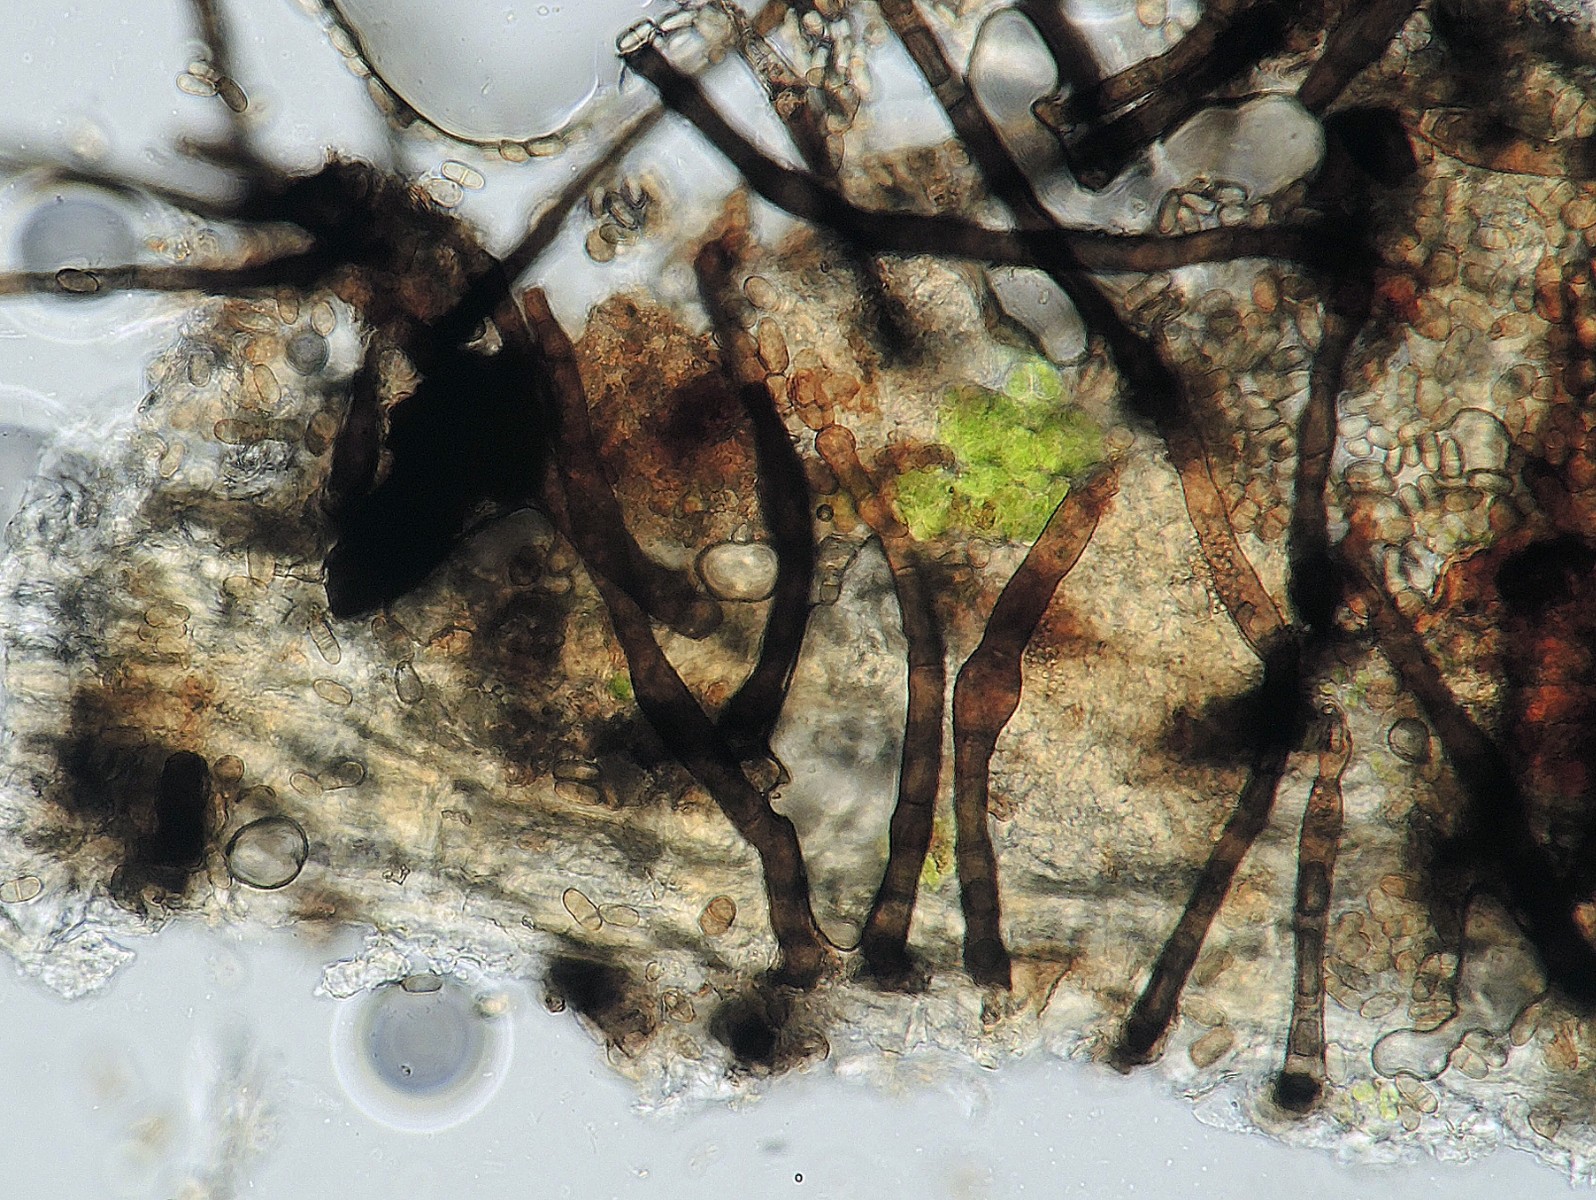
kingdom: Fungi
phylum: Ascomycota
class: Dothideomycetes
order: Pleosporales
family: Torulaceae
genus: Dendryphiella
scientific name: Dendryphiella infuscans
